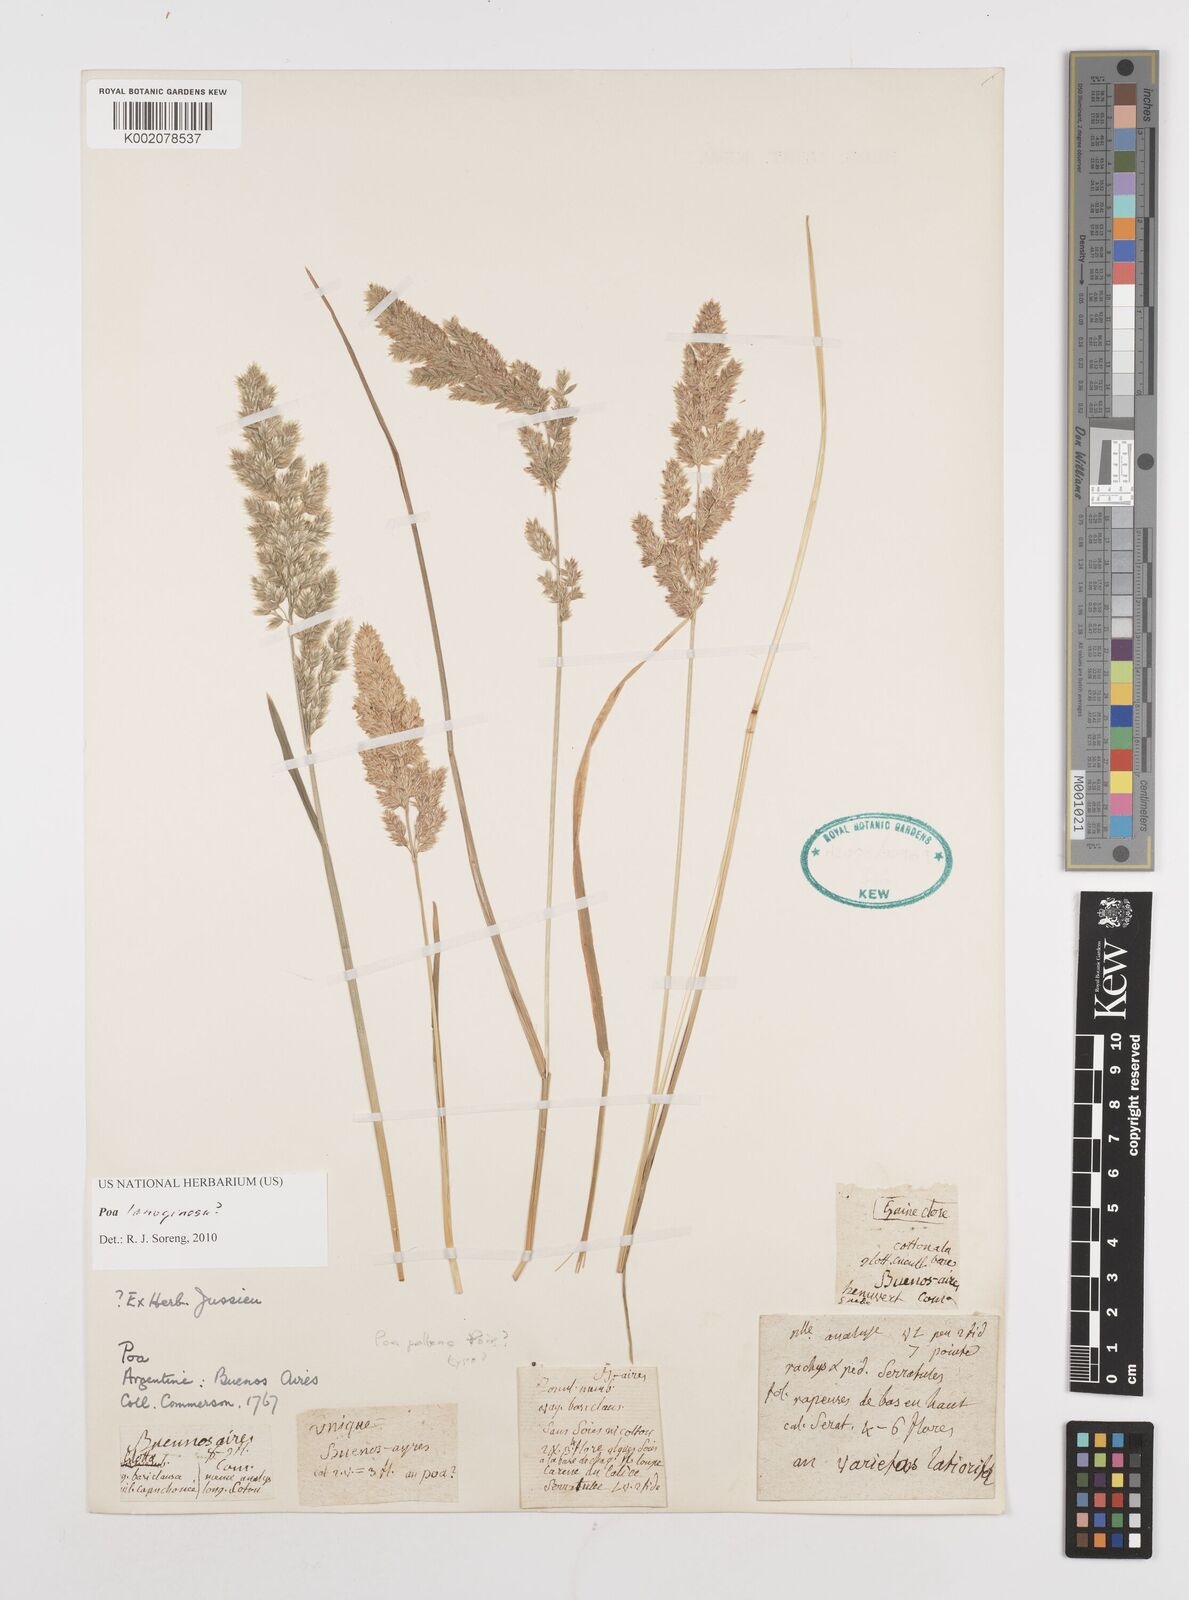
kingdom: Plantae
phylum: Tracheophyta
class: Liliopsida
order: Poales
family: Poaceae
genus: Poa
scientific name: Poa lanuginosa
